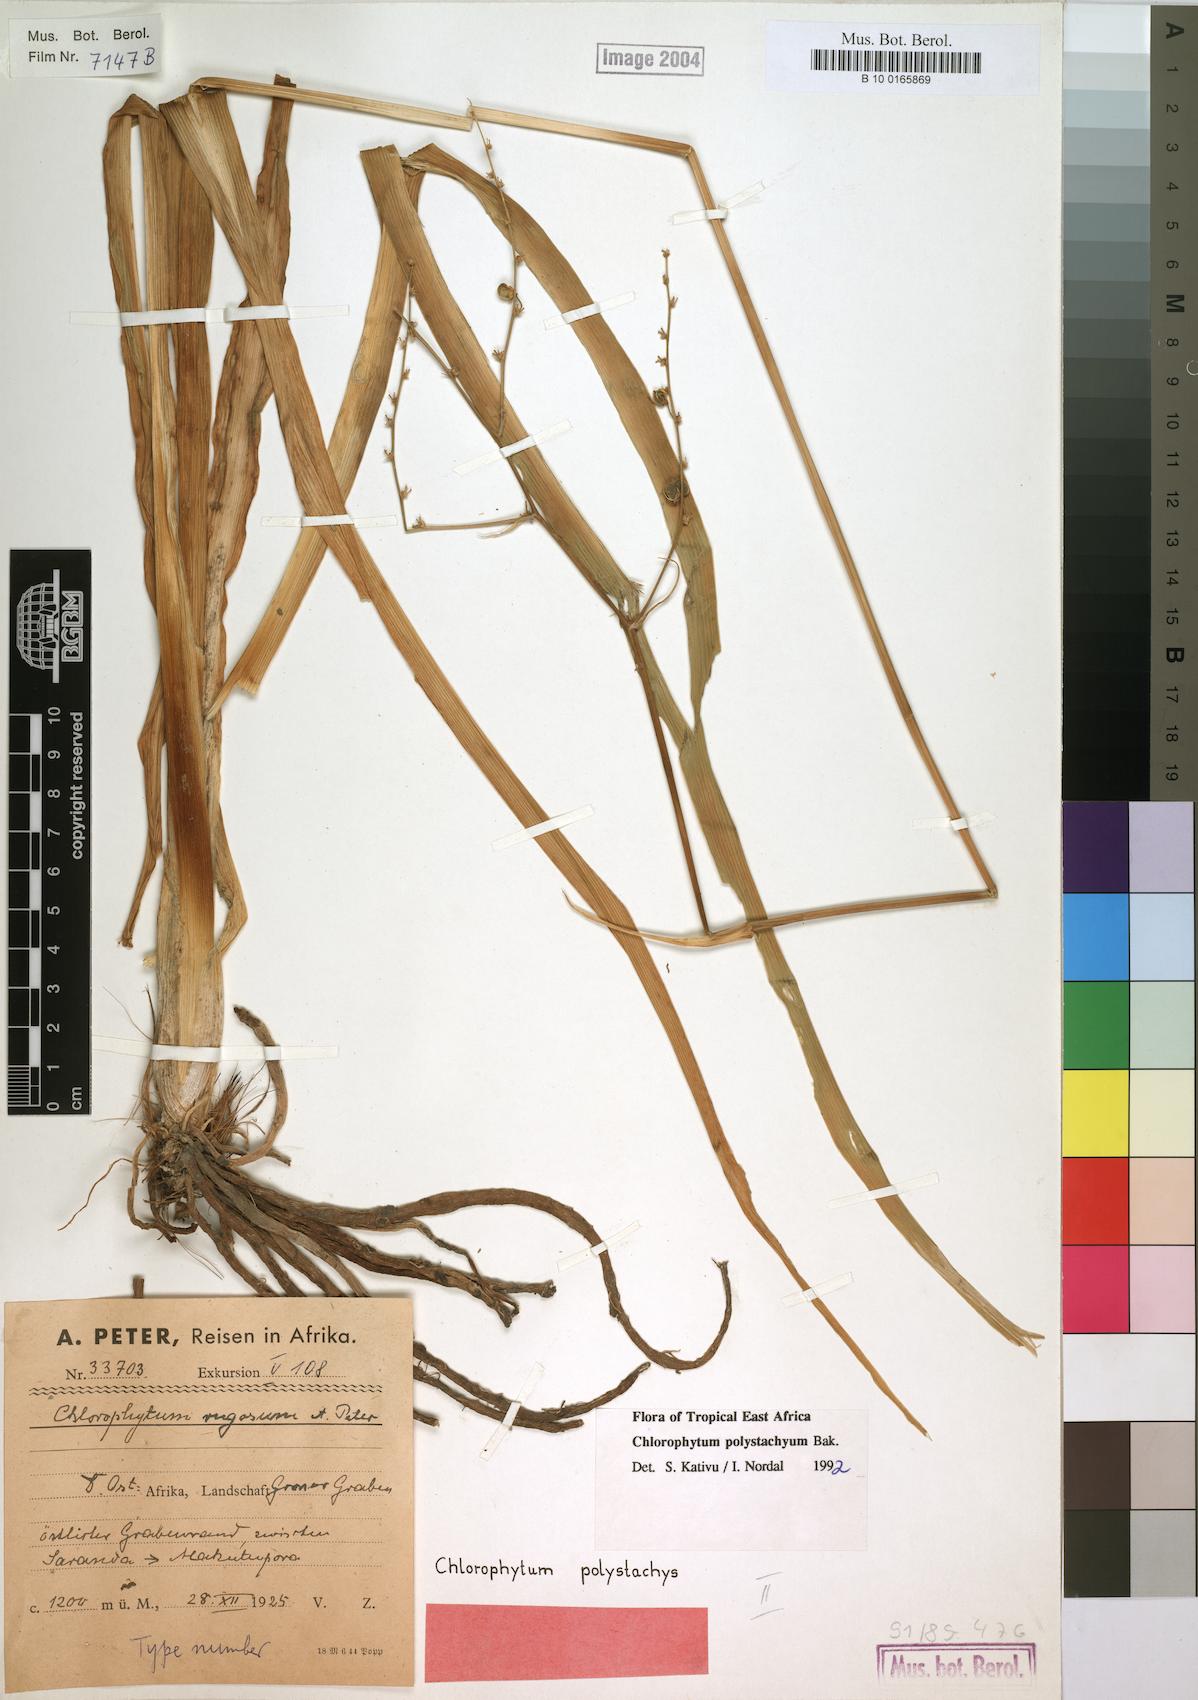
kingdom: Plantae
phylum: Tracheophyta
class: Liliopsida
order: Asparagales
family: Asparagaceae
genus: Chlorophytum
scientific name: Chlorophytum polystachys
